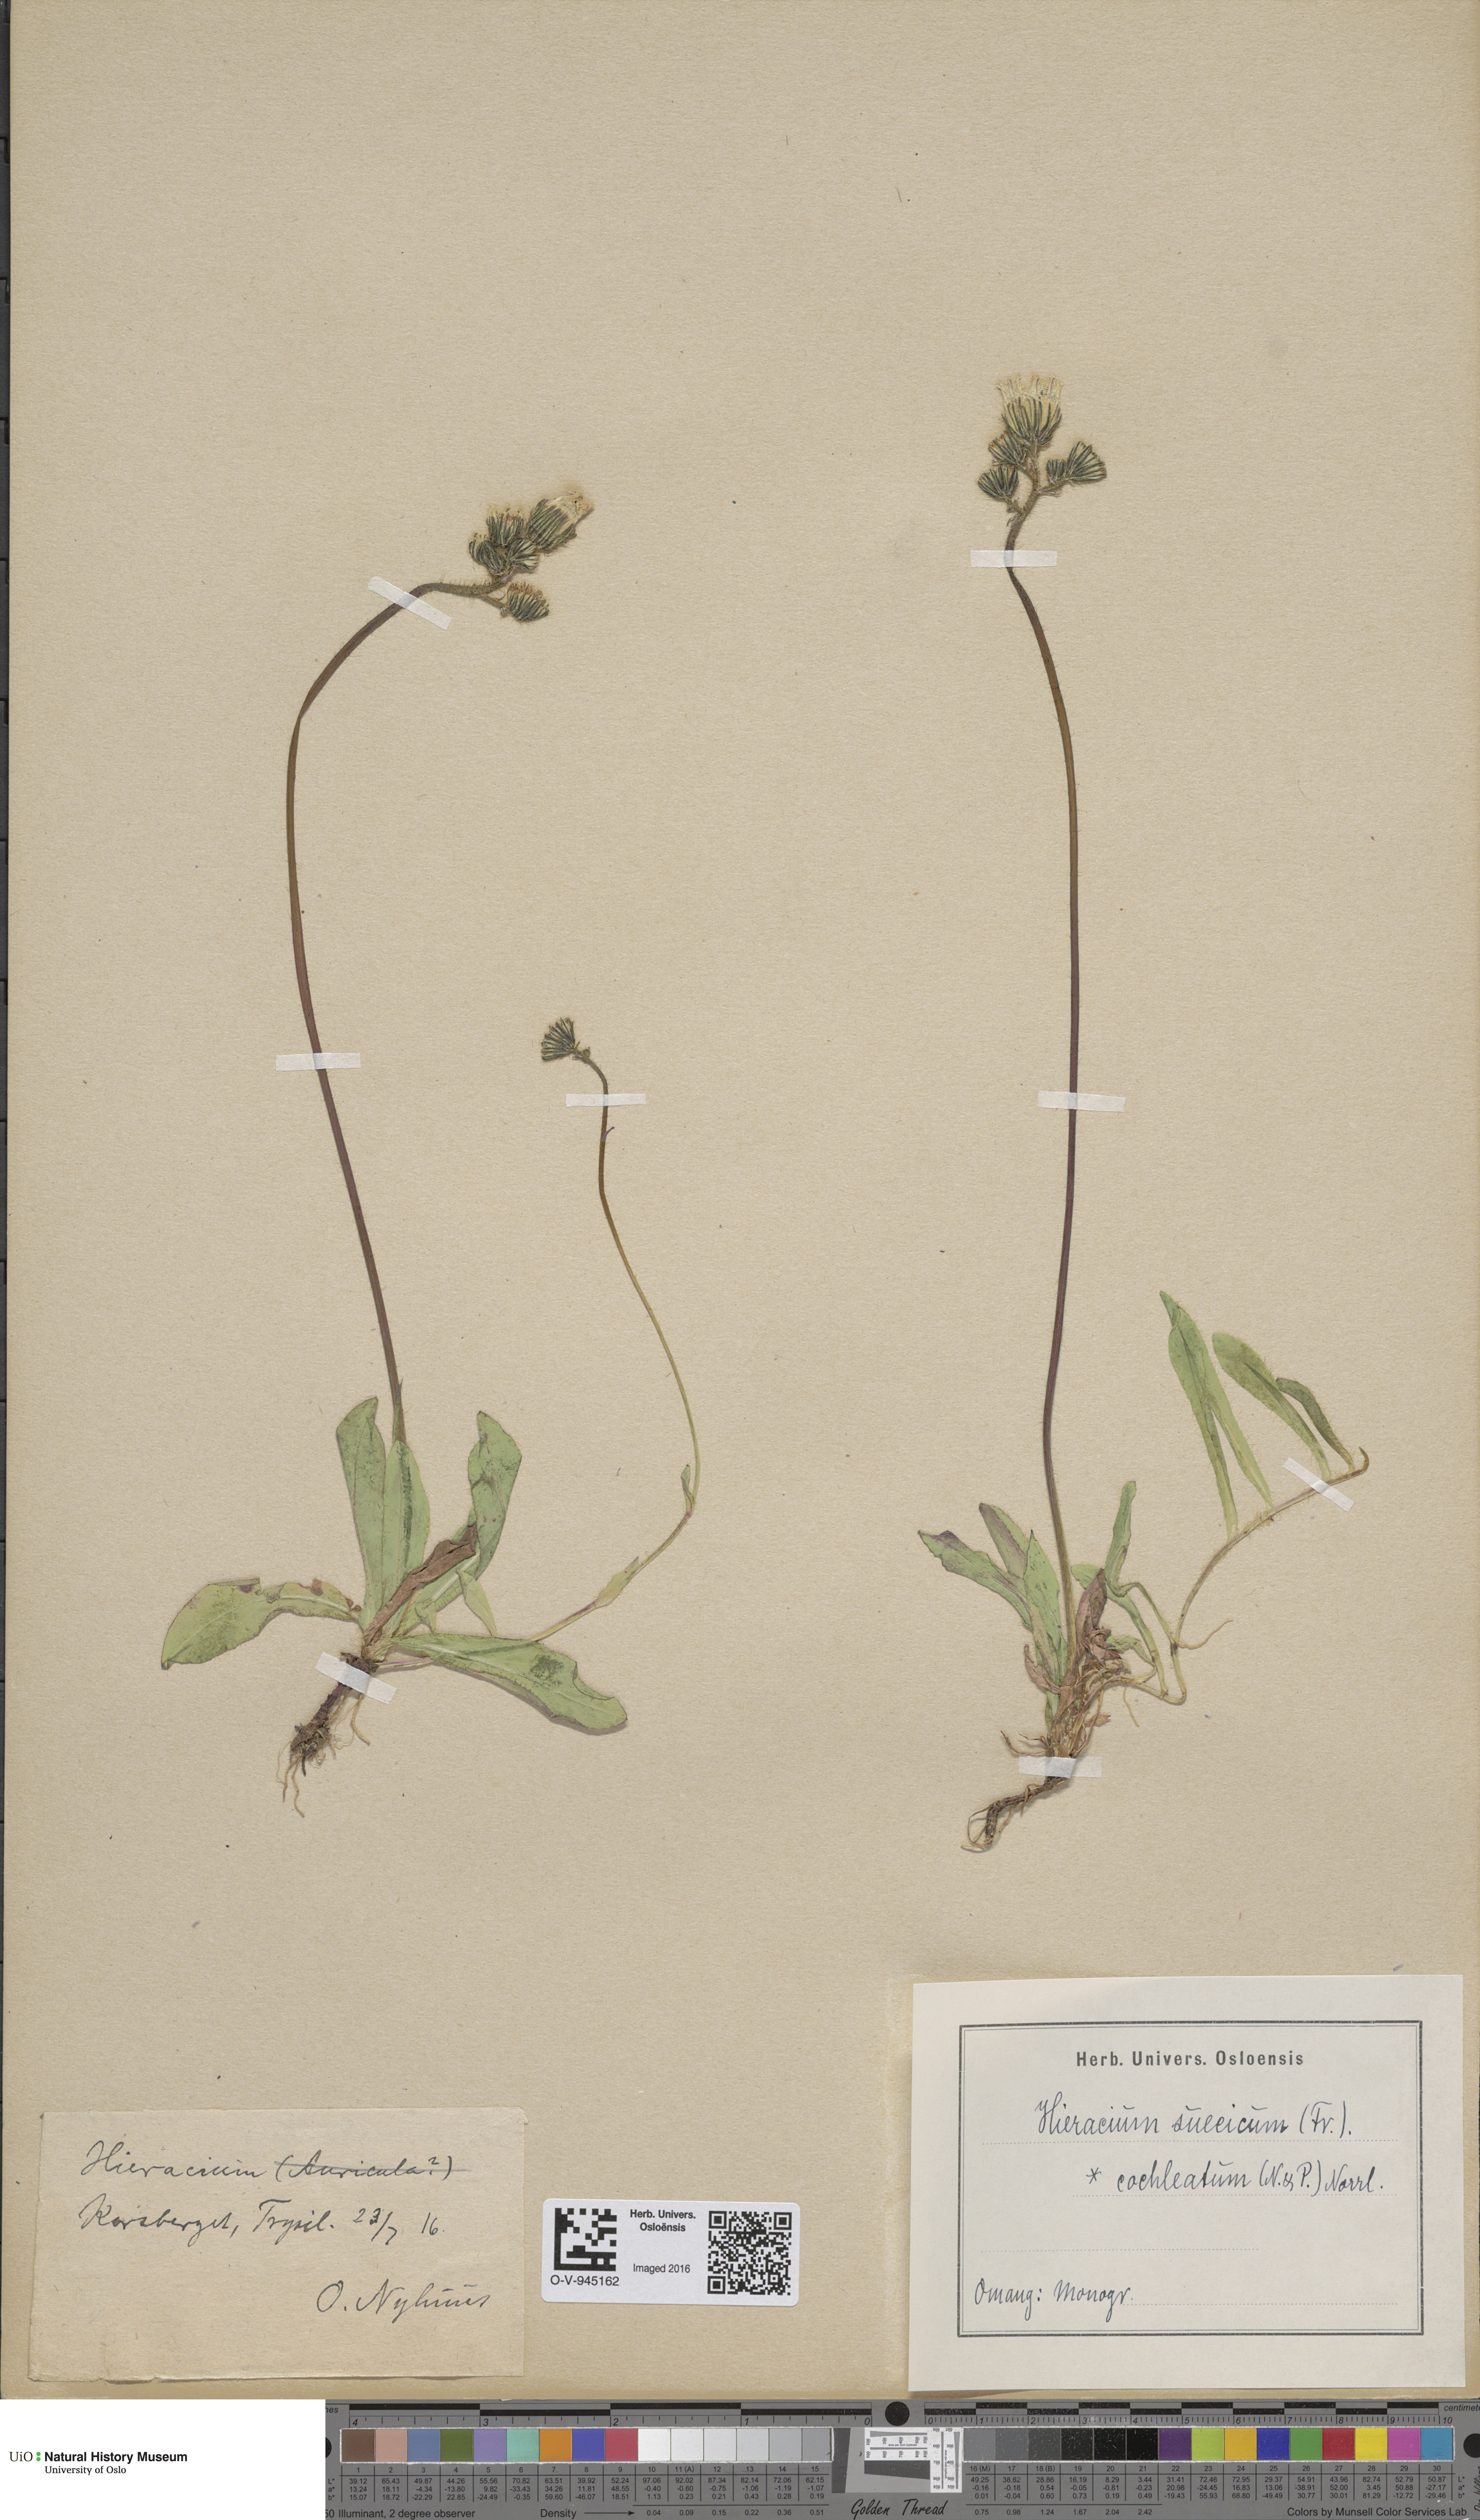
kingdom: Plantae
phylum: Tracheophyta
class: Magnoliopsida
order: Asterales
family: Asteraceae
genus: Pilosella
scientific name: Pilosella dubia
